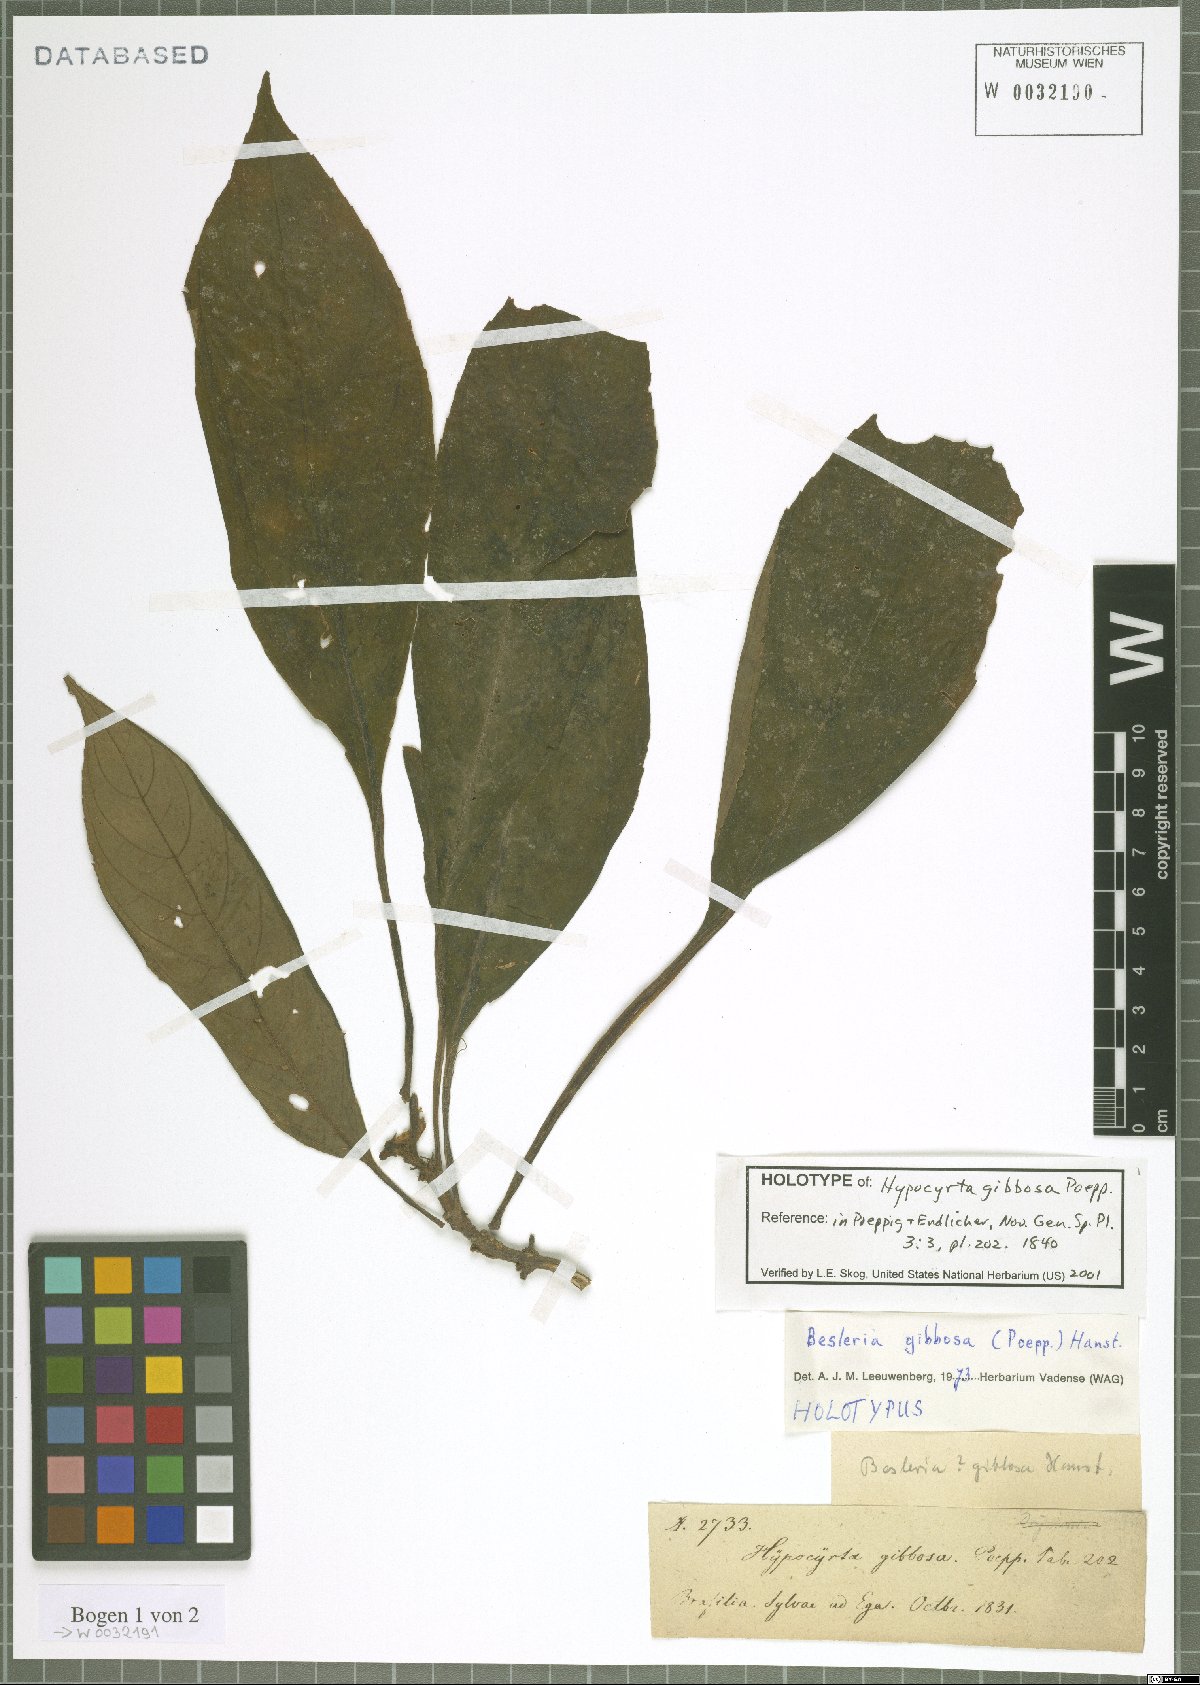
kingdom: Plantae
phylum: Tracheophyta
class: Magnoliopsida
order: Lamiales
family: Gesneriaceae
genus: Besleria
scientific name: Besleria gibbosa
